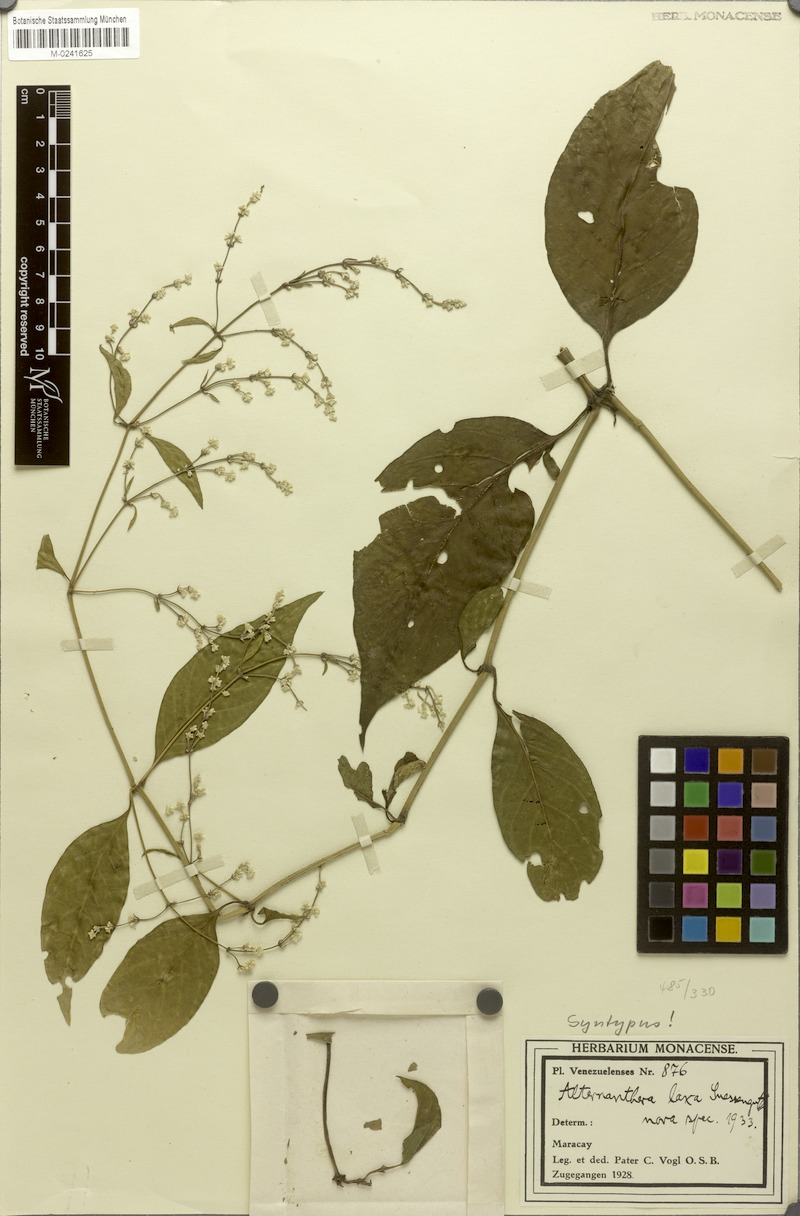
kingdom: Plantae
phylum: Tracheophyta
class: Magnoliopsida
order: Caryophyllales
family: Amaranthaceae
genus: Alternanthera
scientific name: Alternanthera laxa
